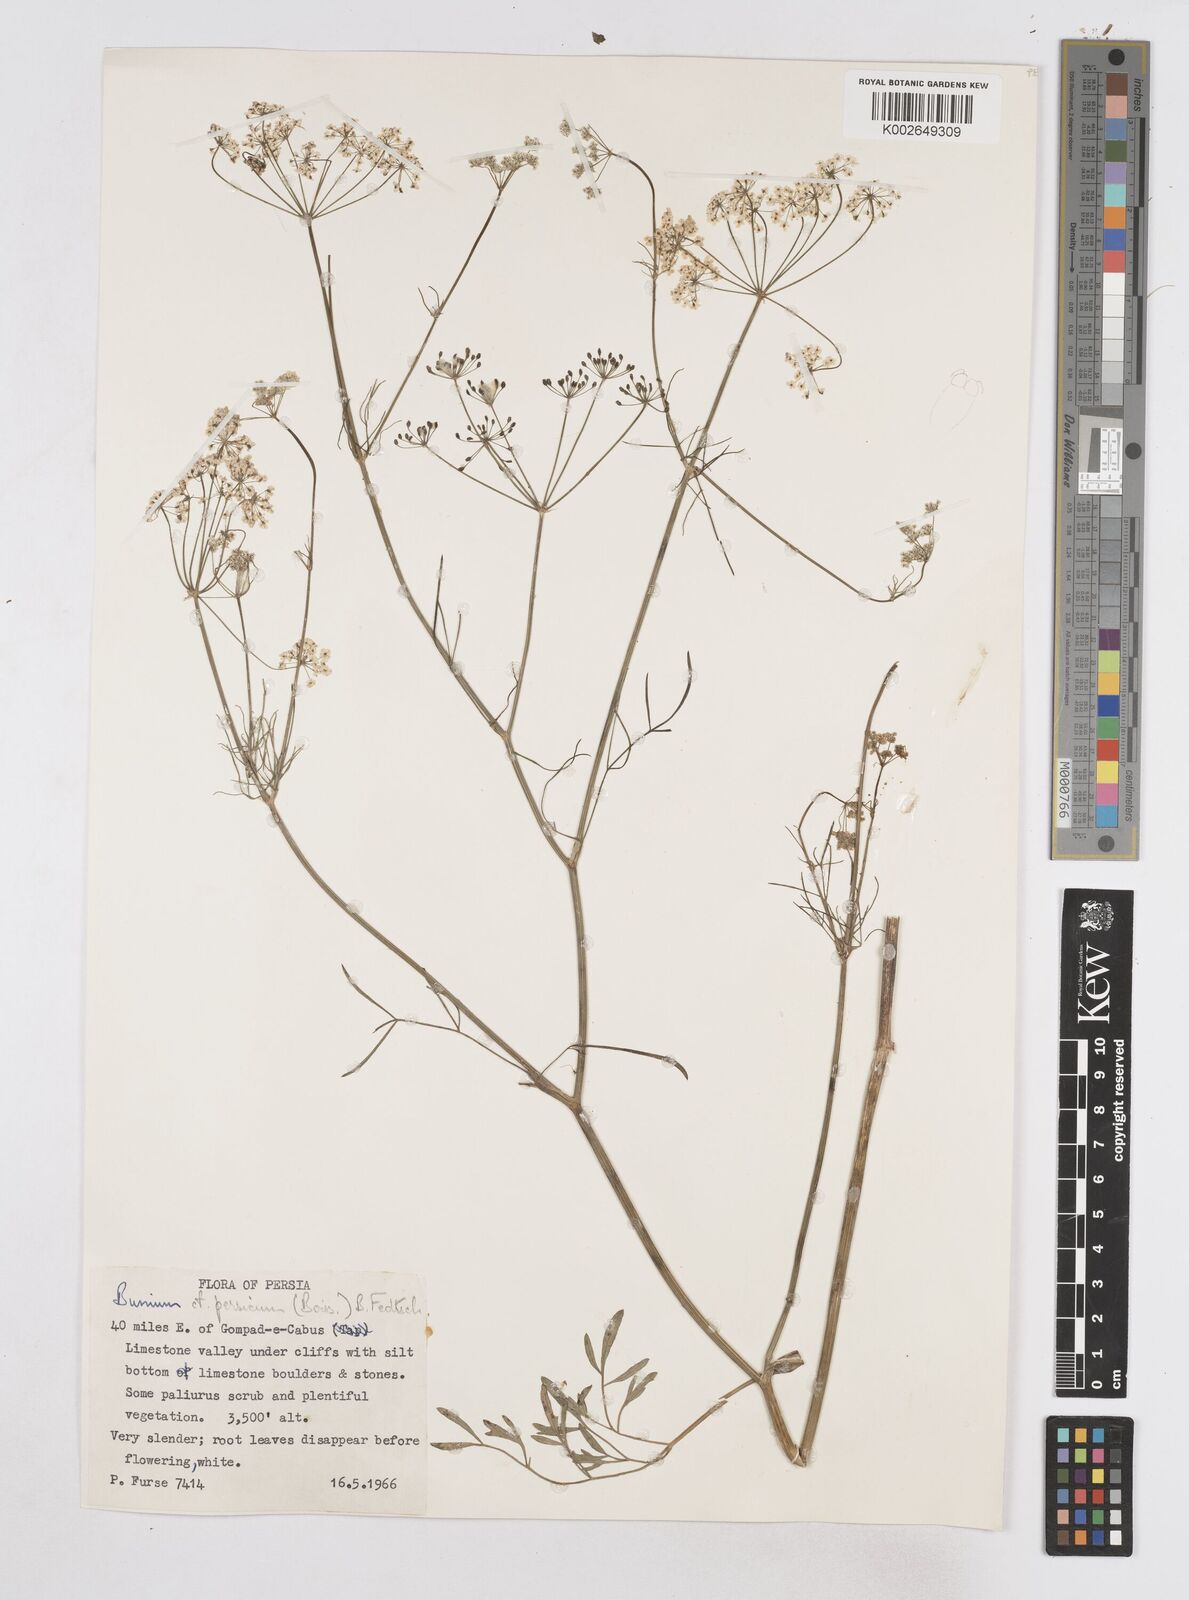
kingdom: Plantae
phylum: Tracheophyta
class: Magnoliopsida
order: Apiales
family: Apiaceae
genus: Elwendia
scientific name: Elwendia persica
